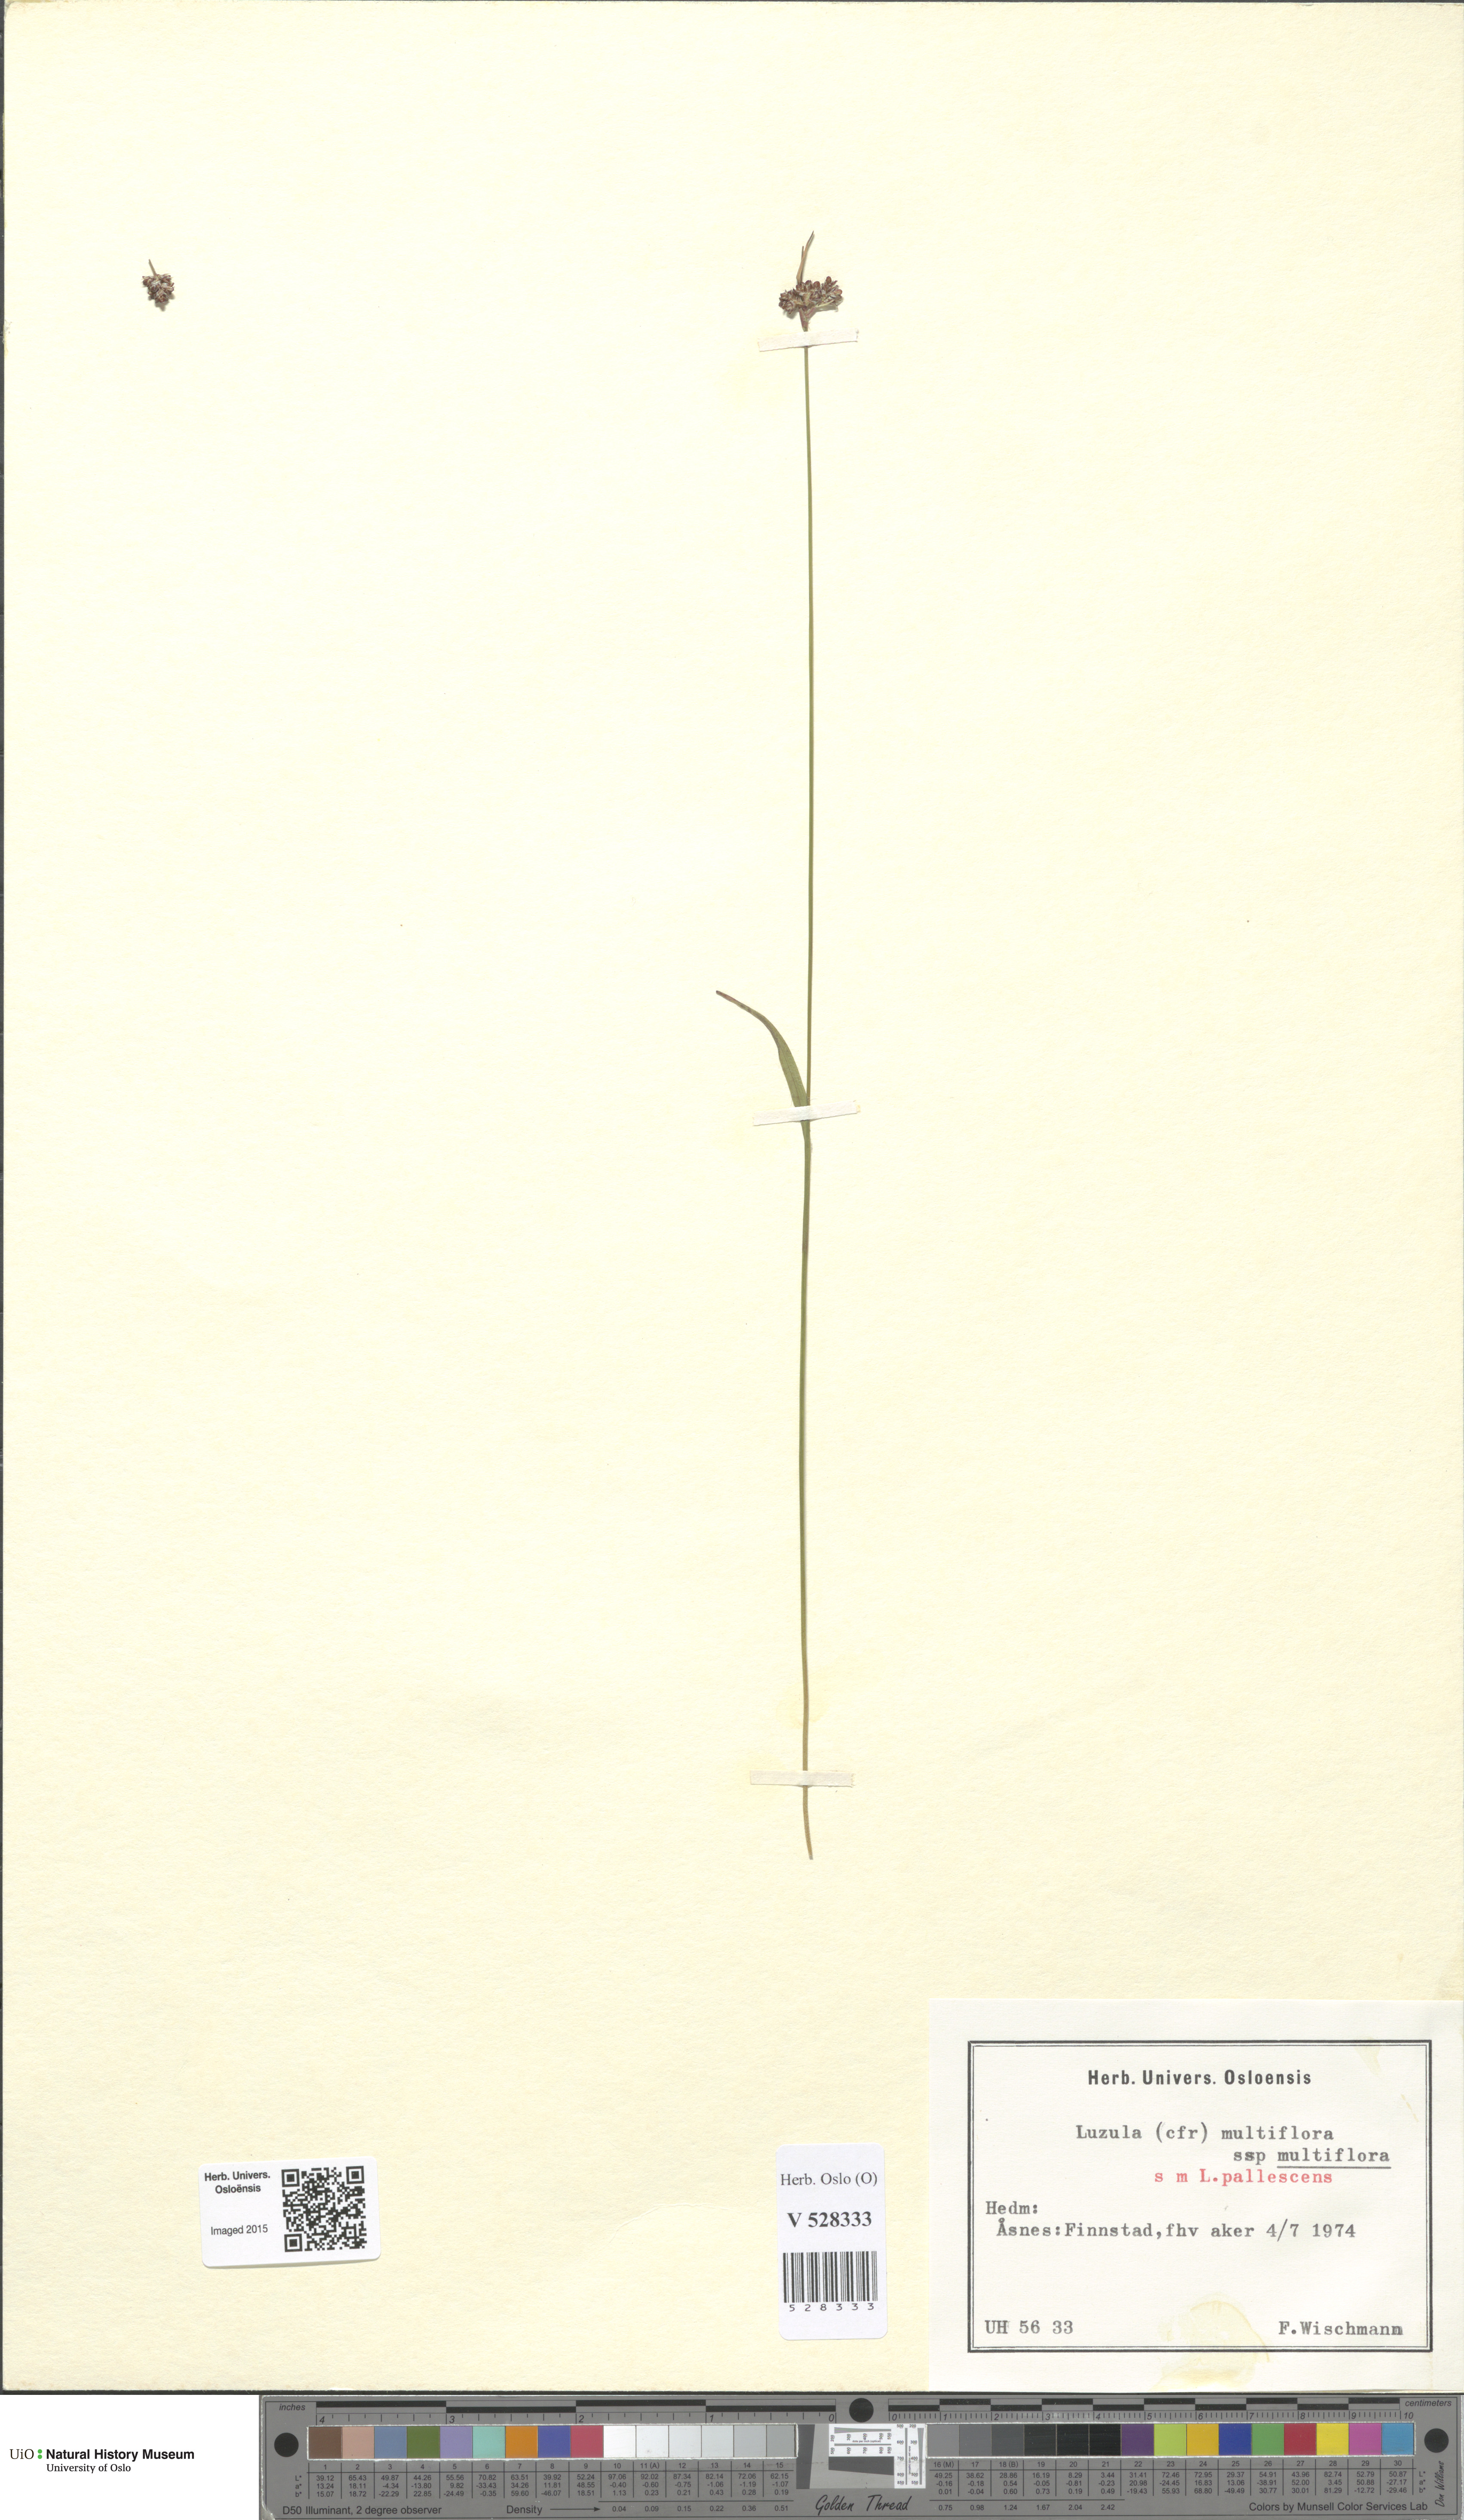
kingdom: Plantae
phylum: Tracheophyta
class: Liliopsida
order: Poales
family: Juncaceae
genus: Luzula
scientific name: Luzula multiflora
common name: Heath wood-rush
